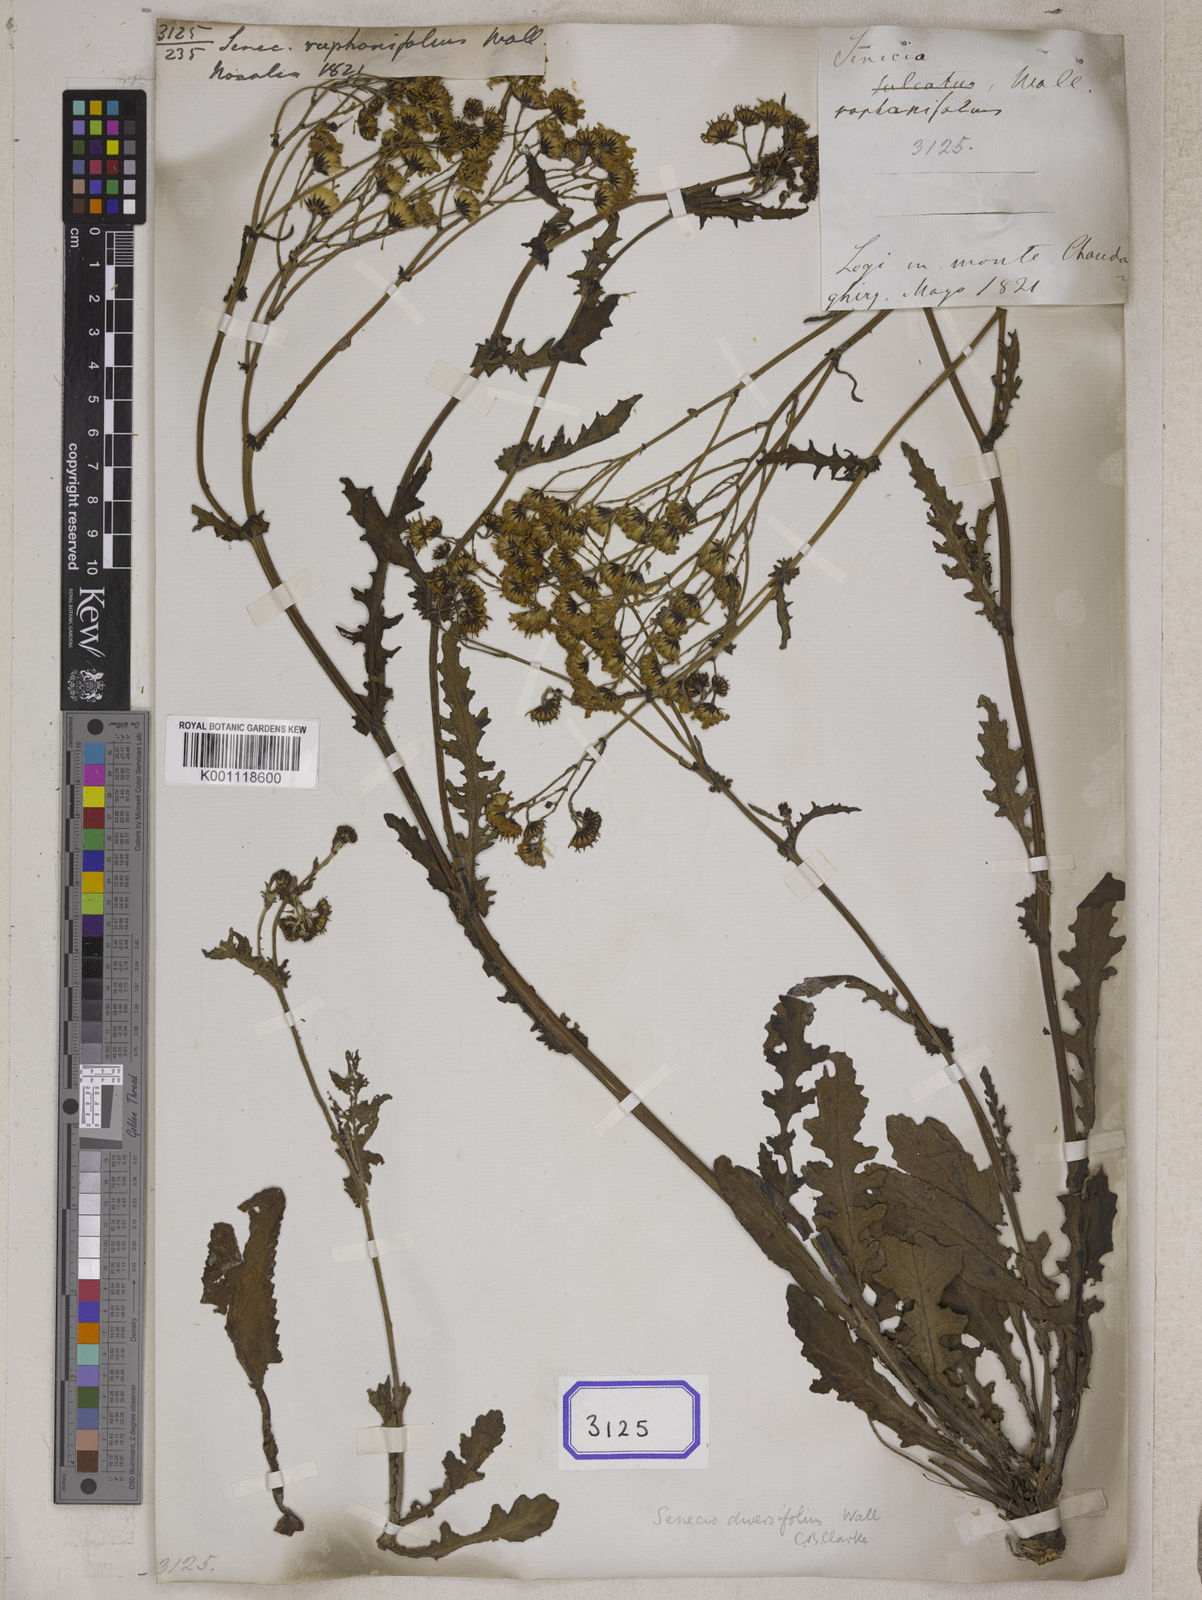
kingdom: Plantae
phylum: Tracheophyta
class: Magnoliopsida
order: Asterales
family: Asteraceae
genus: Senecio
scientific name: Senecio
